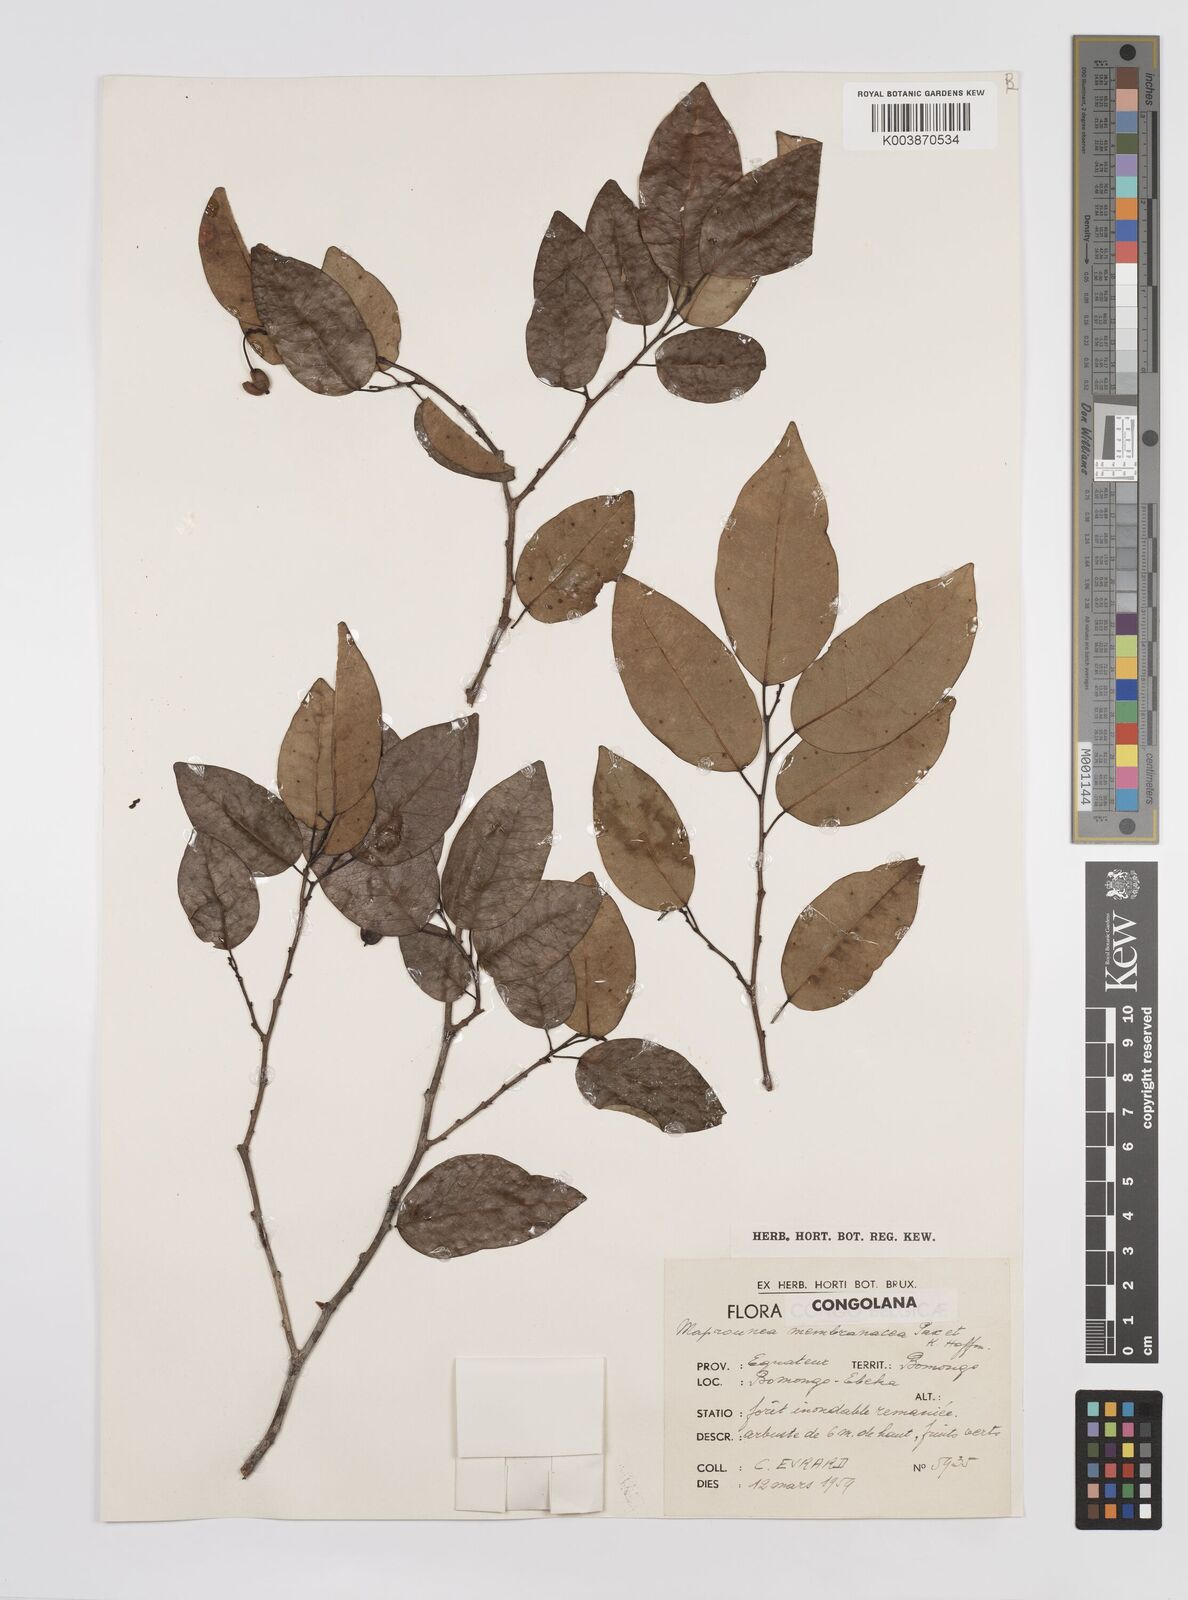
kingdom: Plantae
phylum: Tracheophyta
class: Magnoliopsida
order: Malpighiales
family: Euphorbiaceae
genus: Maprounea
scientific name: Maprounea membranacea
